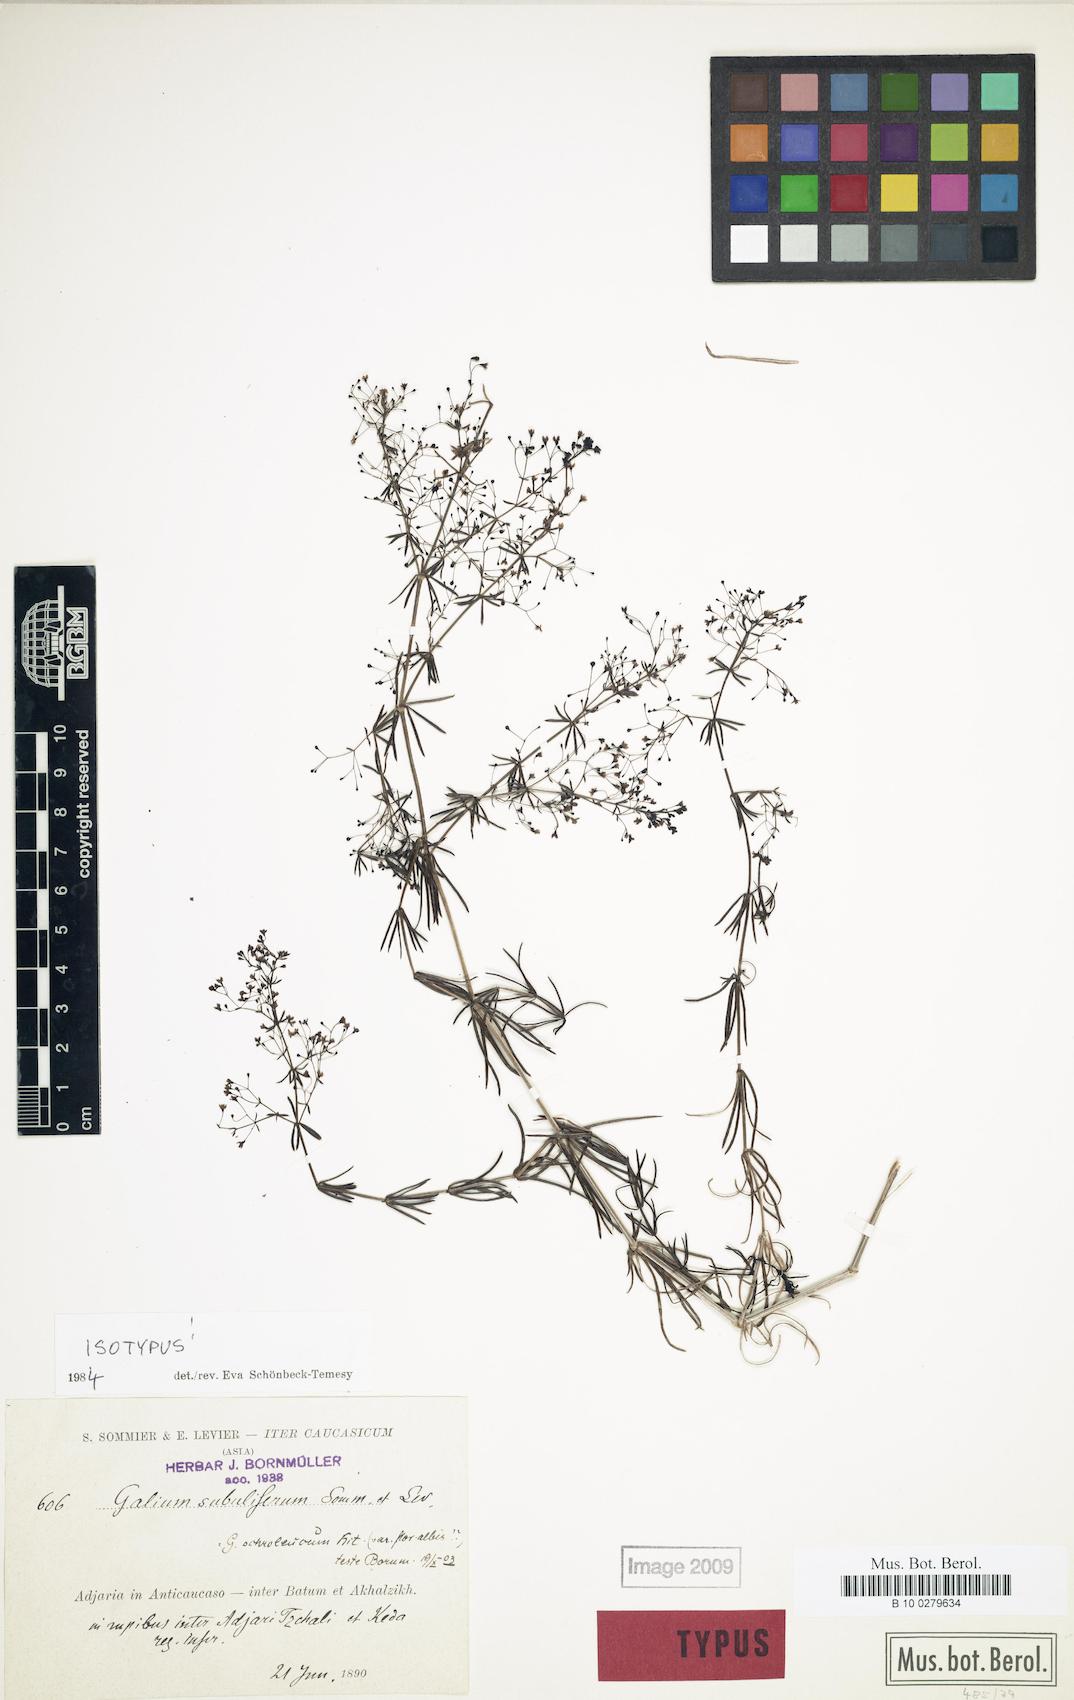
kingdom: Plantae
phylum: Tracheophyta
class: Magnoliopsida
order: Gentianales
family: Rubiaceae
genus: Galium
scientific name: Galium subuliferum
